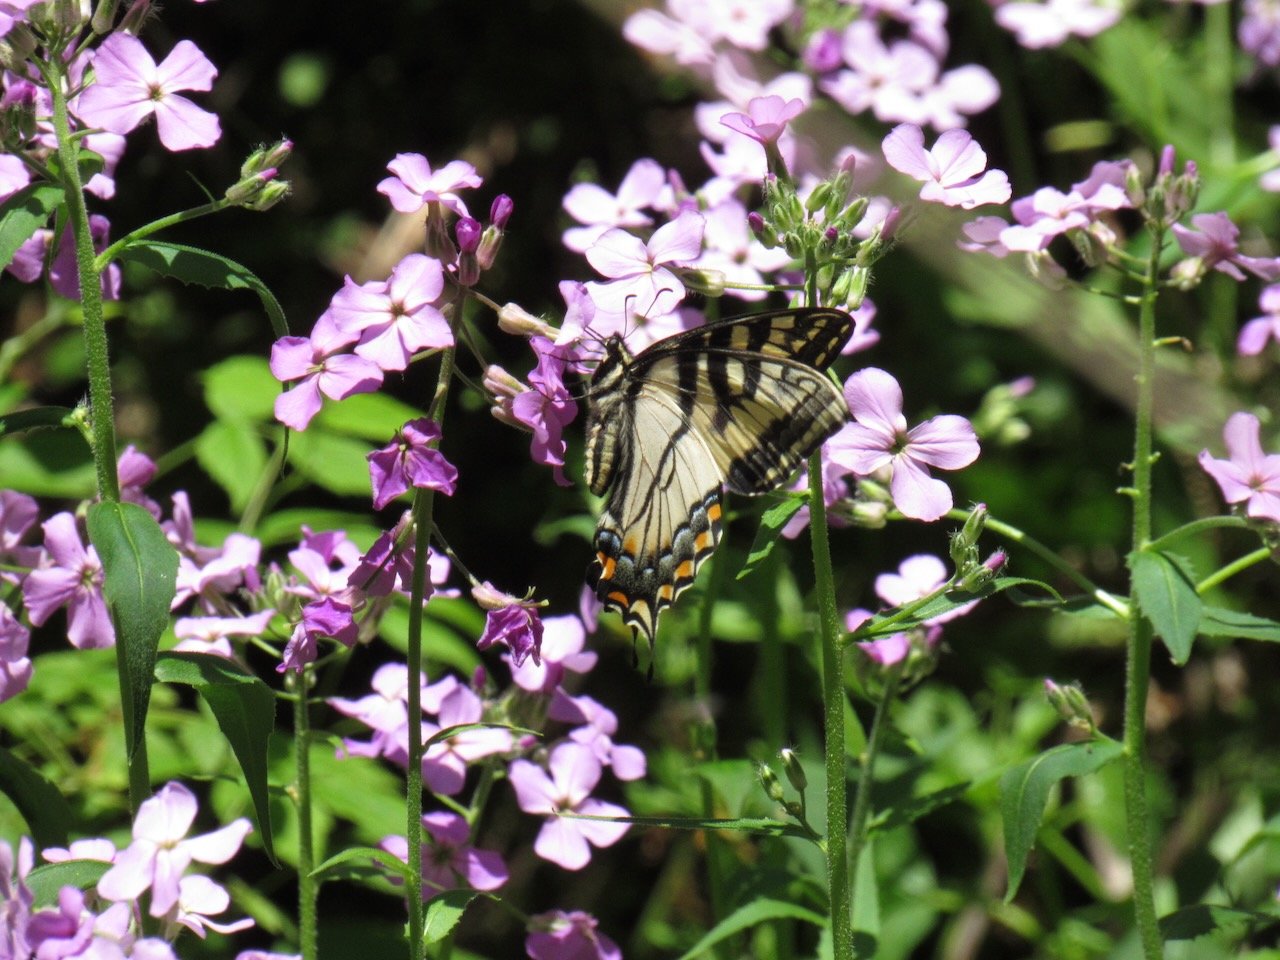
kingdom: Animalia
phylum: Arthropoda
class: Insecta
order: Lepidoptera
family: Papilionidae
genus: Pterourus
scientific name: Pterourus canadensis
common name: Canadian Tiger Swallowtail
